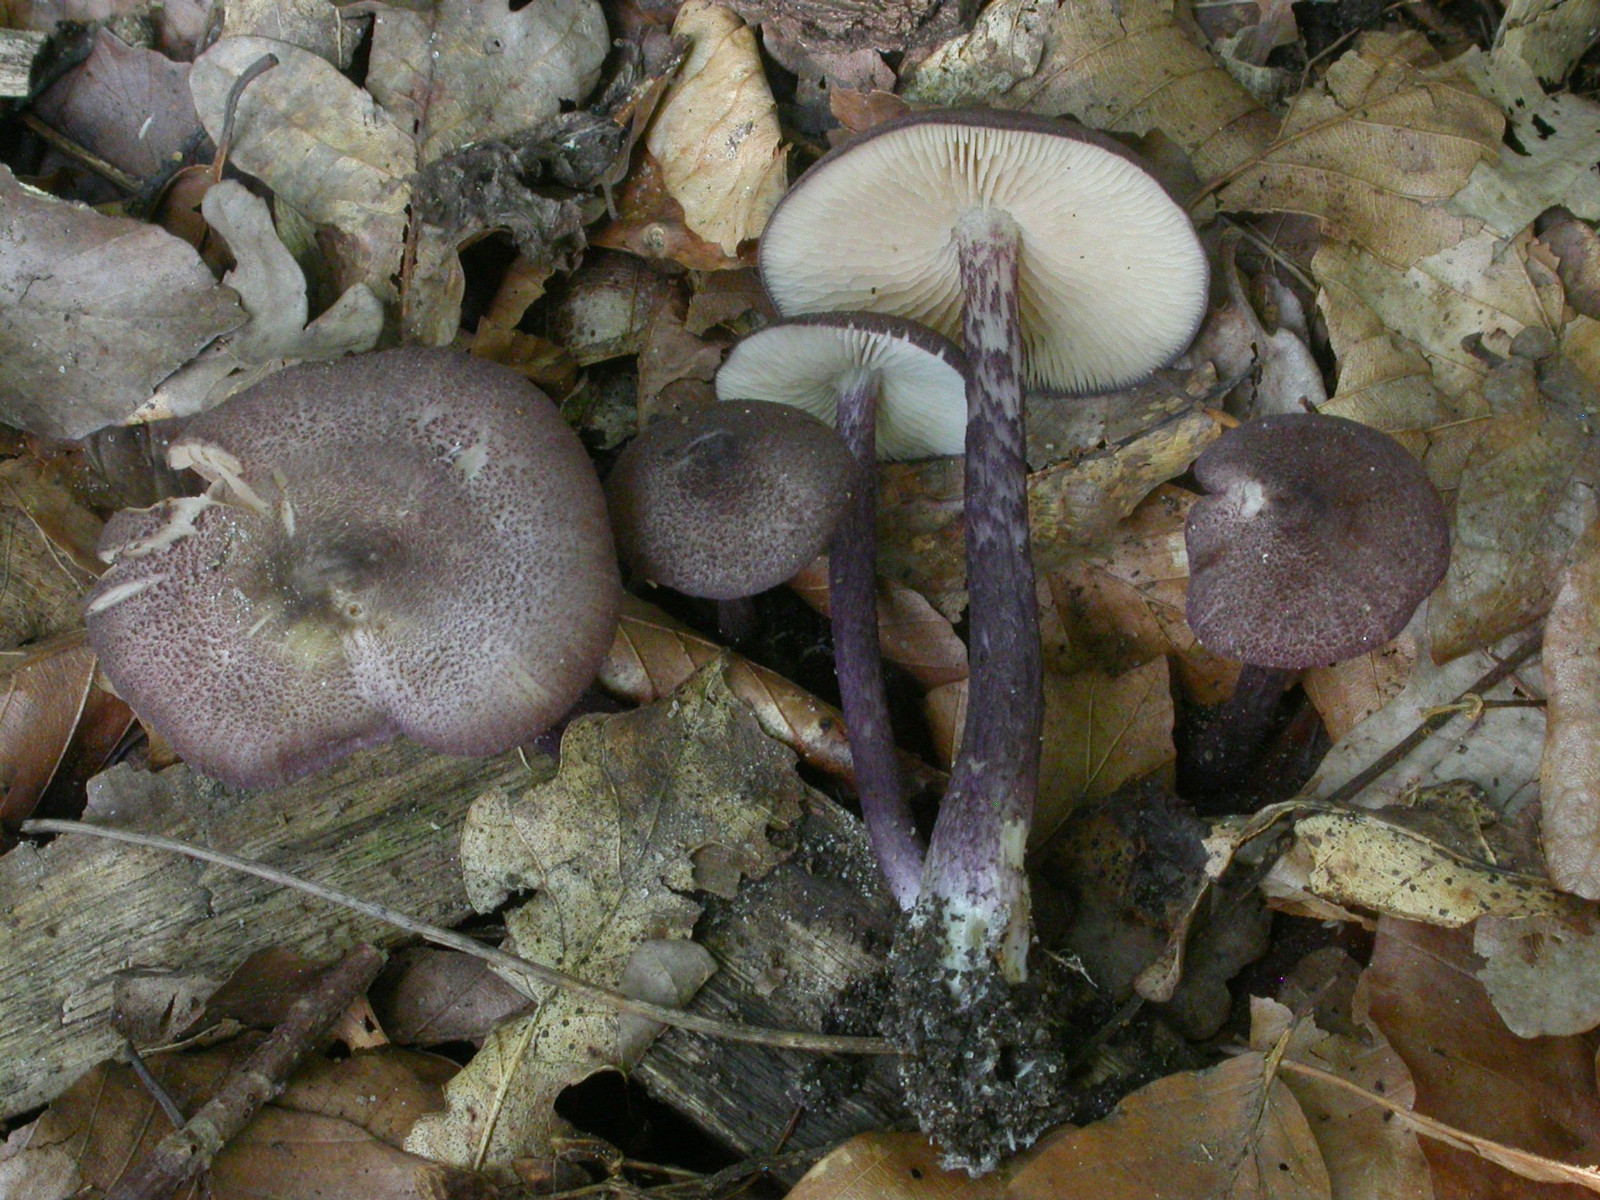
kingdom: Fungi
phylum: Basidiomycota
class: Agaricomycetes
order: Agaricales
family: Entolomataceae
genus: Entoloma
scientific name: Entoloma allochroum
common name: Rødviolet rødblad
